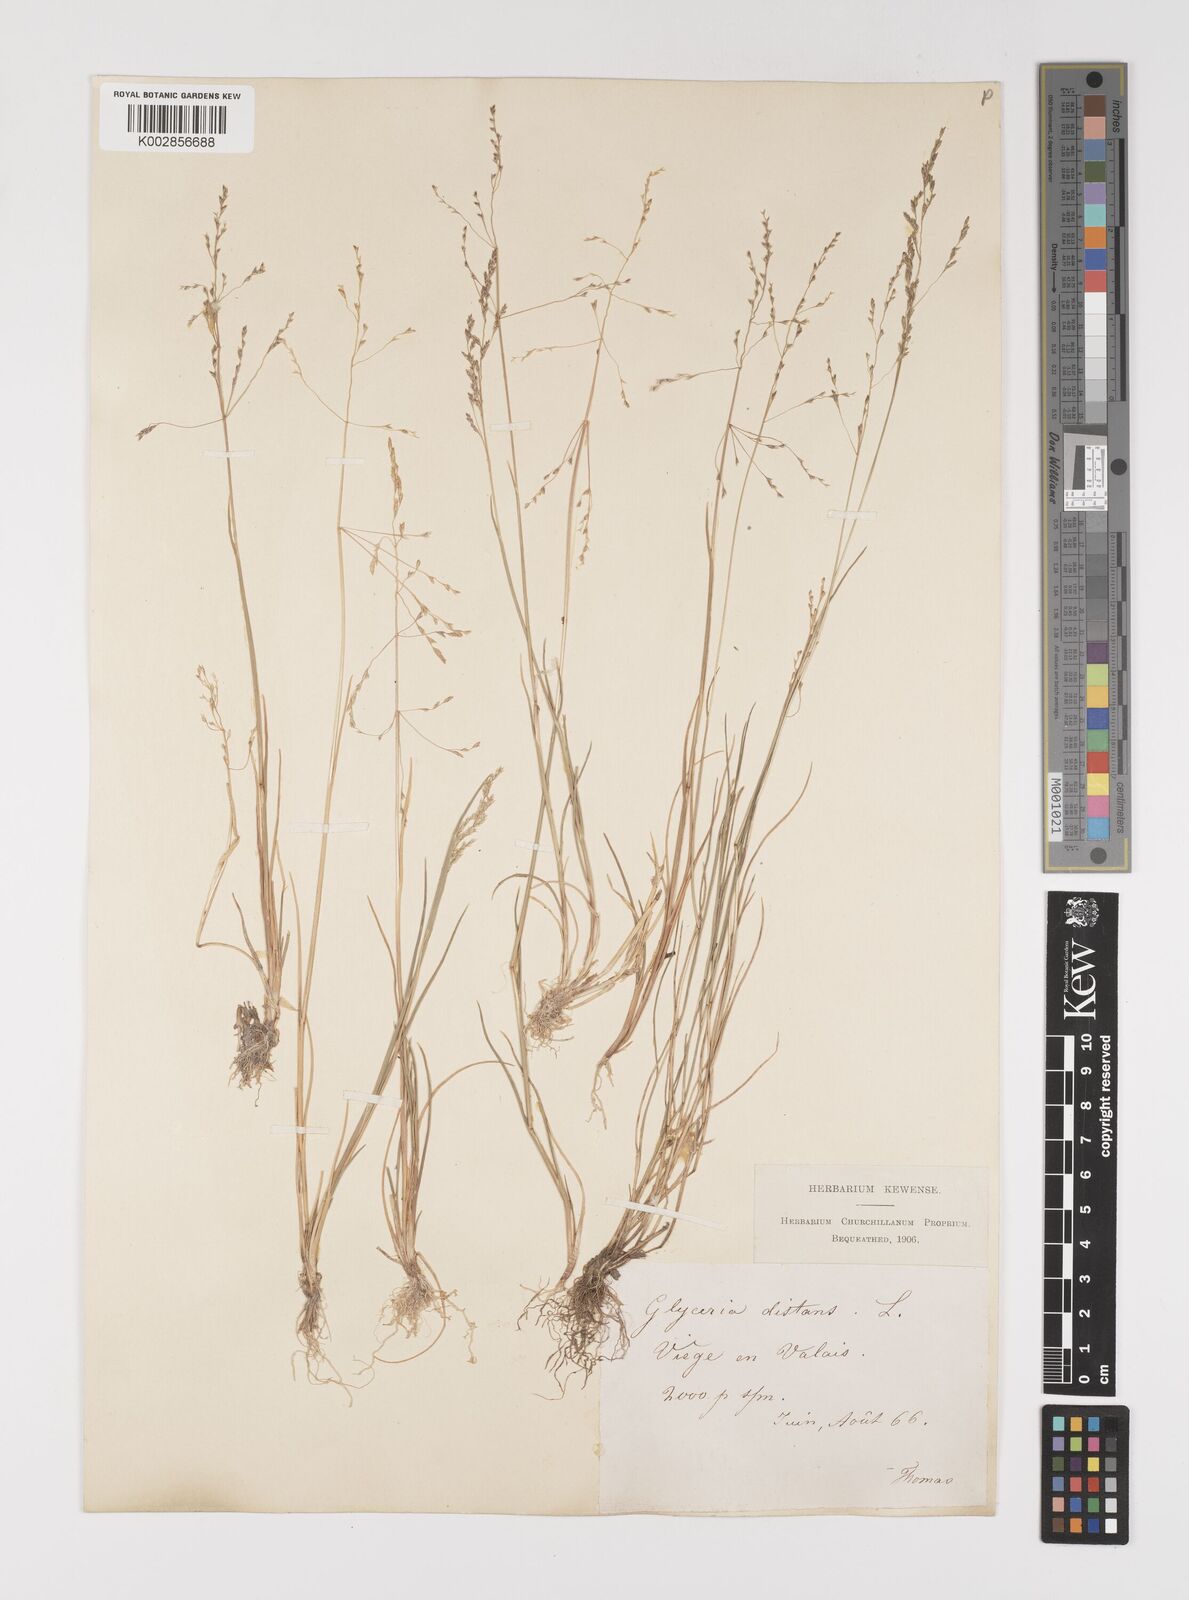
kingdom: Plantae
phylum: Tracheophyta
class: Liliopsida
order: Poales
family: Poaceae
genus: Puccinellia
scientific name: Puccinellia
